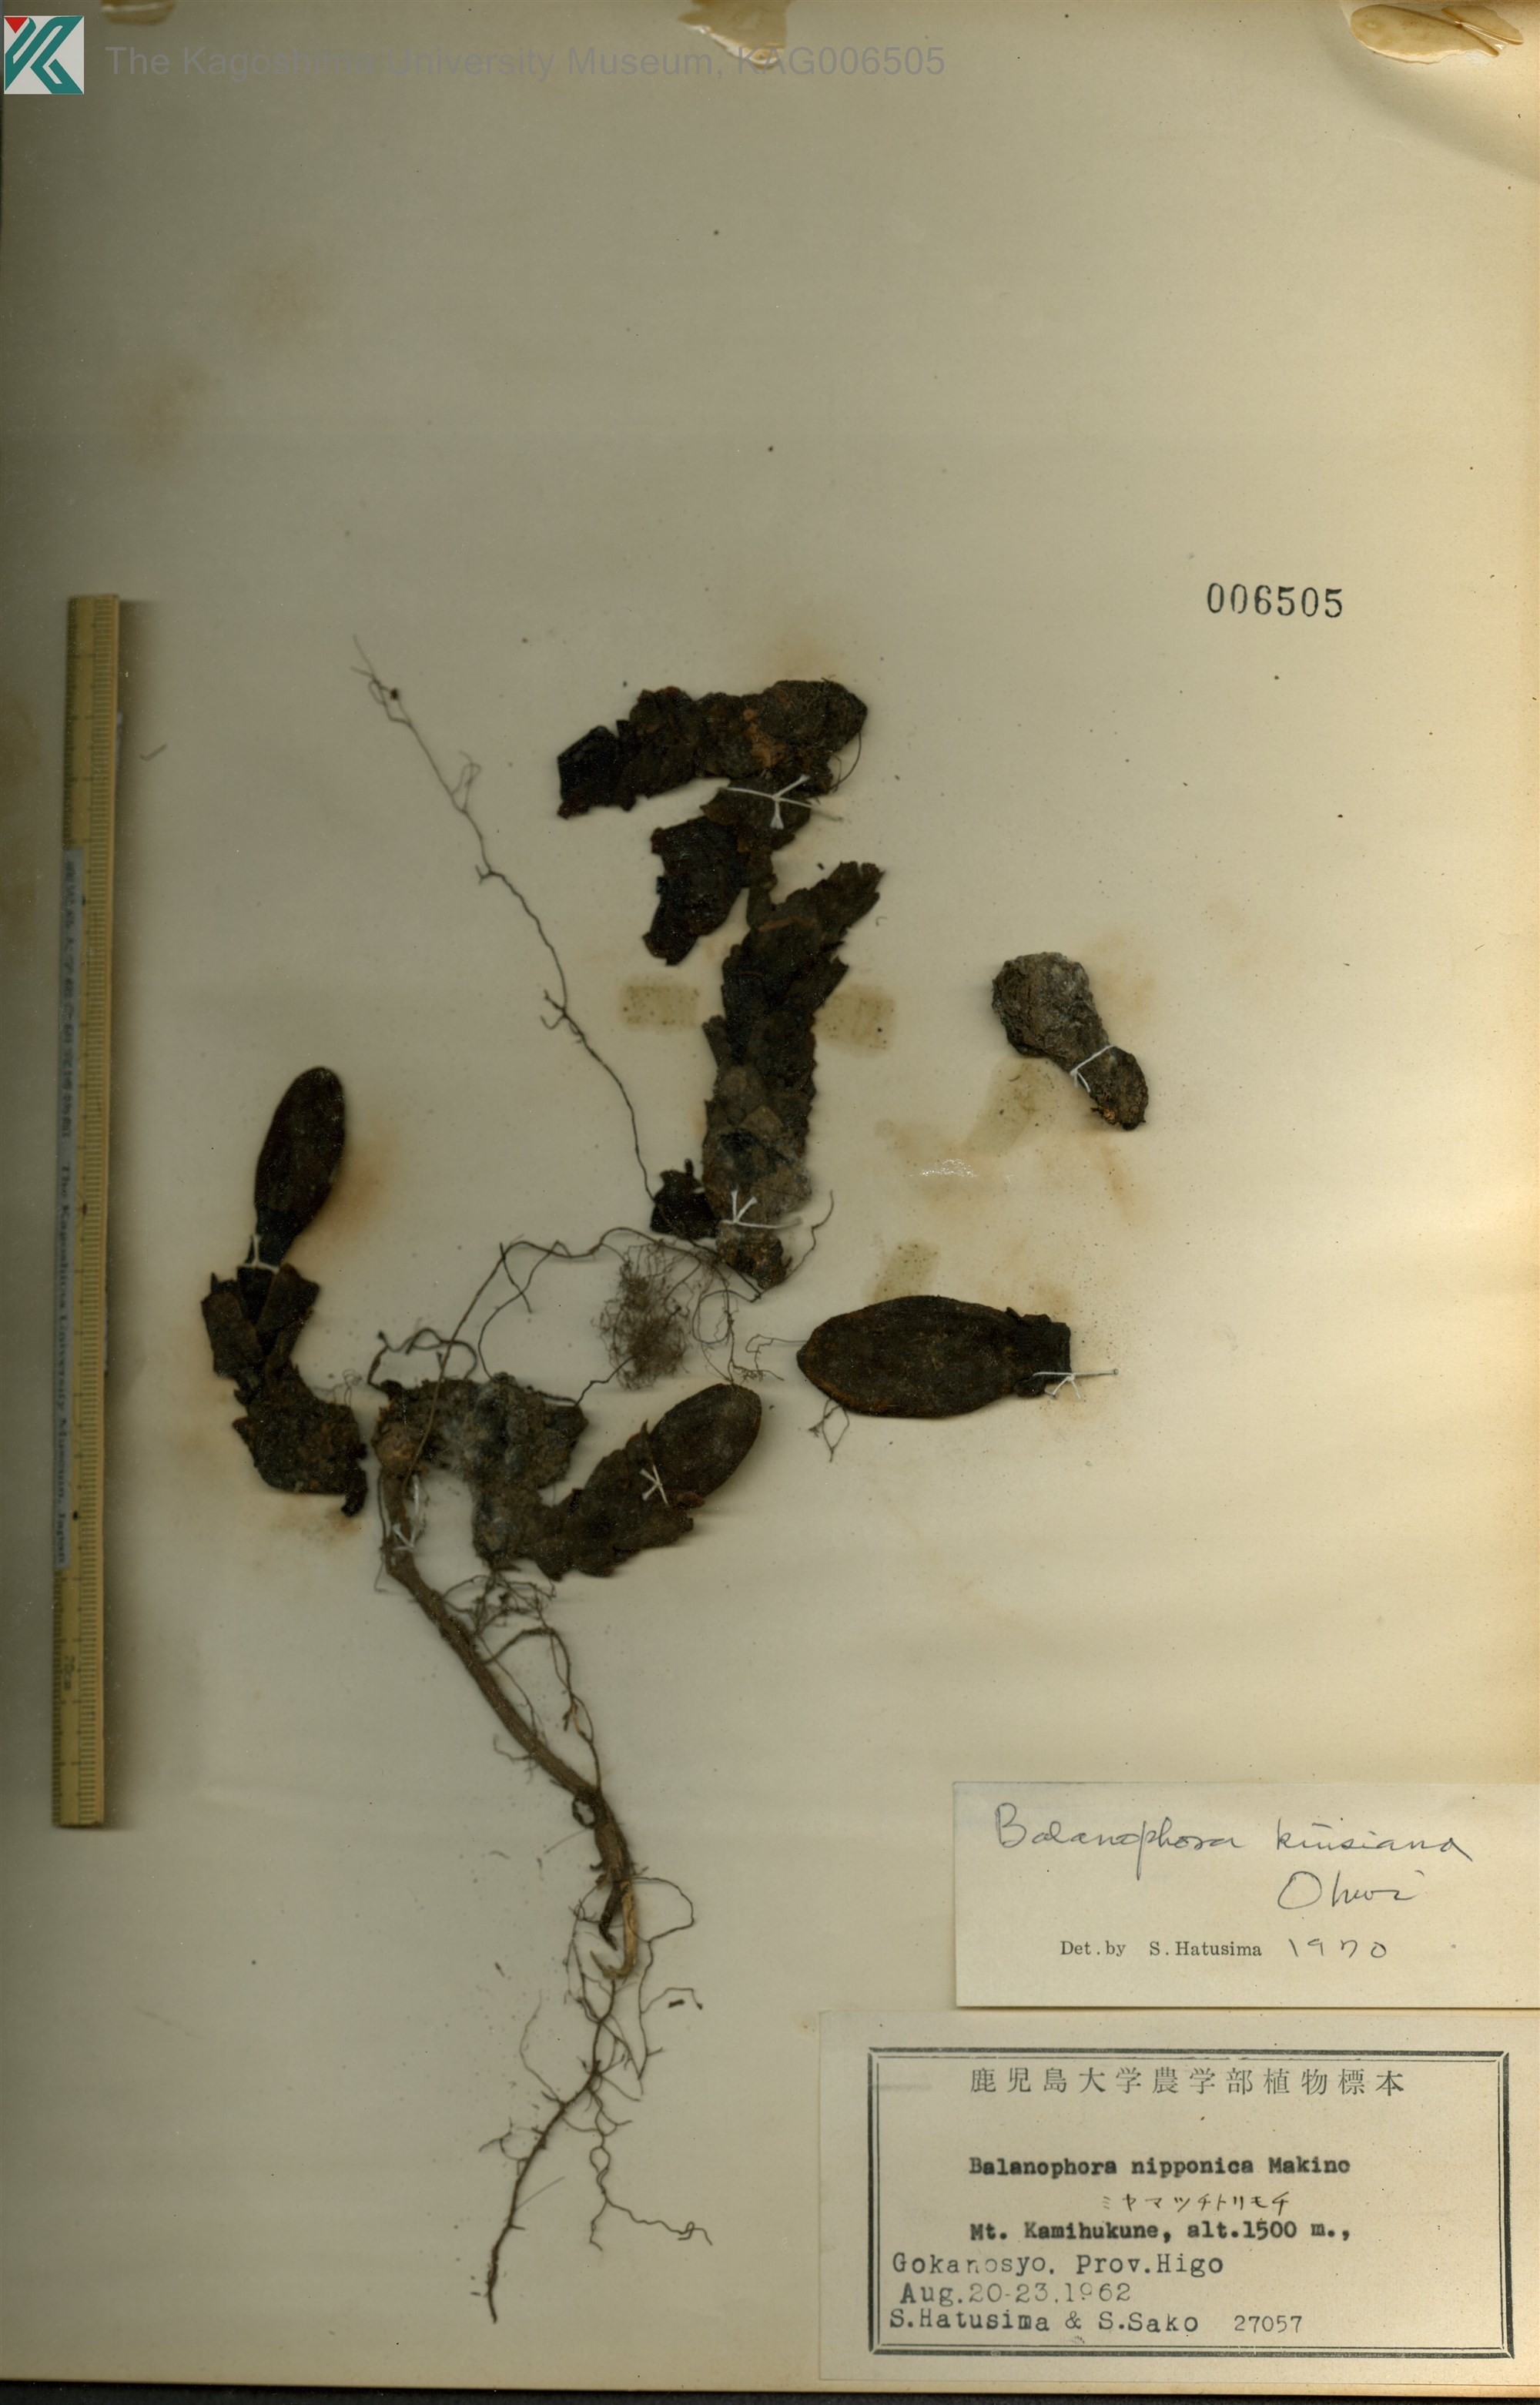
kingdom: Plantae
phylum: Tracheophyta
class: Magnoliopsida
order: Santalales
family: Balanophoraceae
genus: Balanophora
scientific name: Balanophora nipponica
